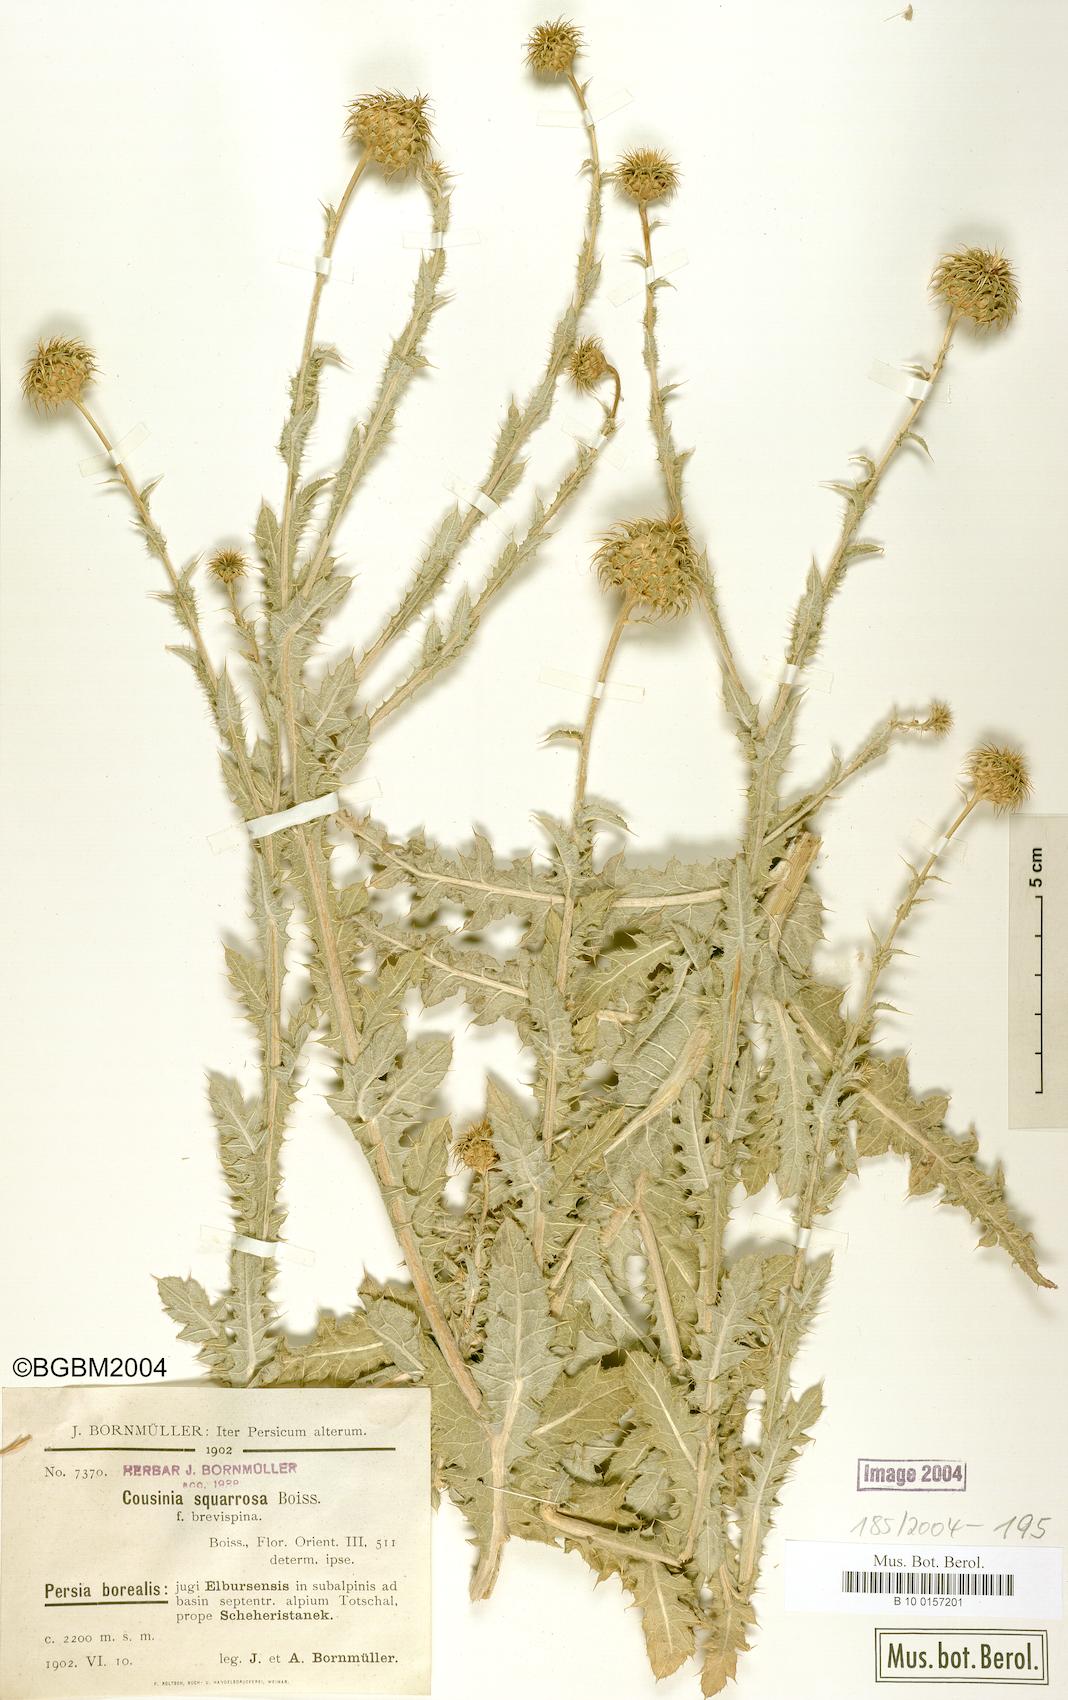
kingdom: Plantae
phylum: Tracheophyta
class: Magnoliopsida
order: Asterales
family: Asteraceae
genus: Cousinia
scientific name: Cousinia
